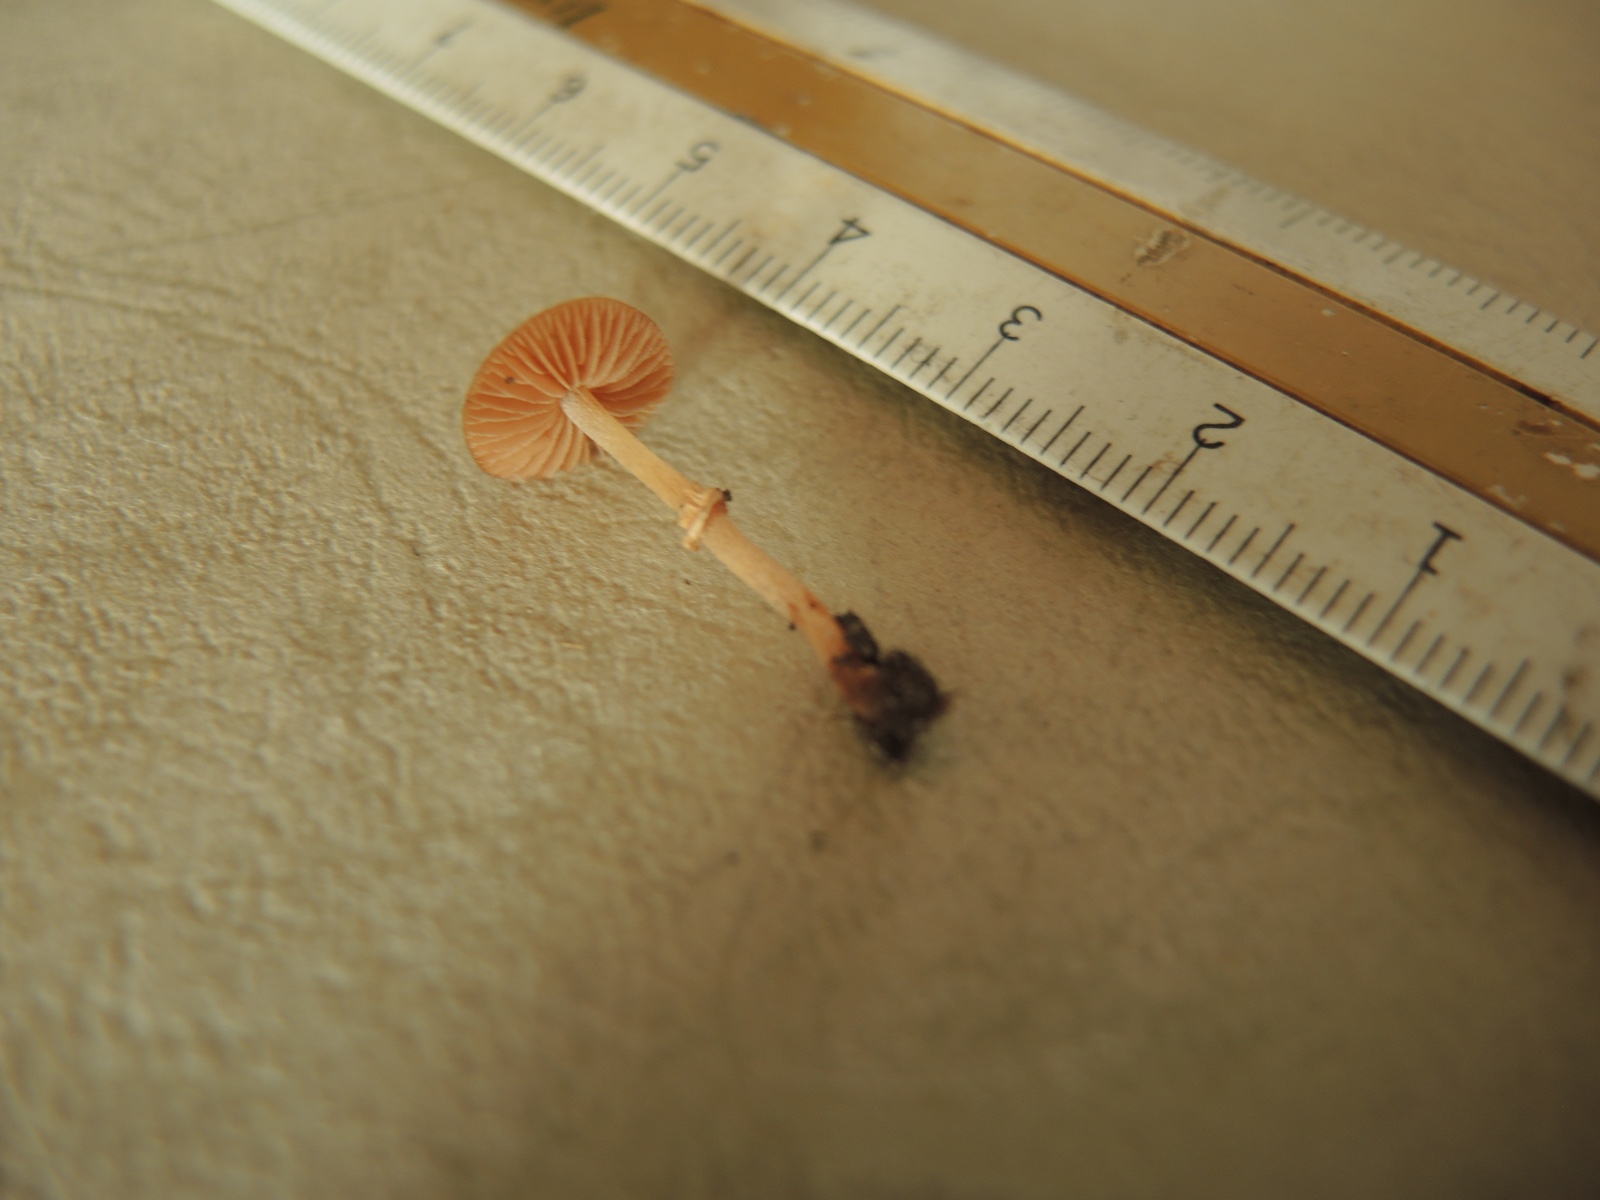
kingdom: Fungi
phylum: Basidiomycota
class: Agaricomycetes
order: Agaricales
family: Bolbitiaceae
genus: Conocybe
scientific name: Conocybe rugosa
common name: giftig dansehat
